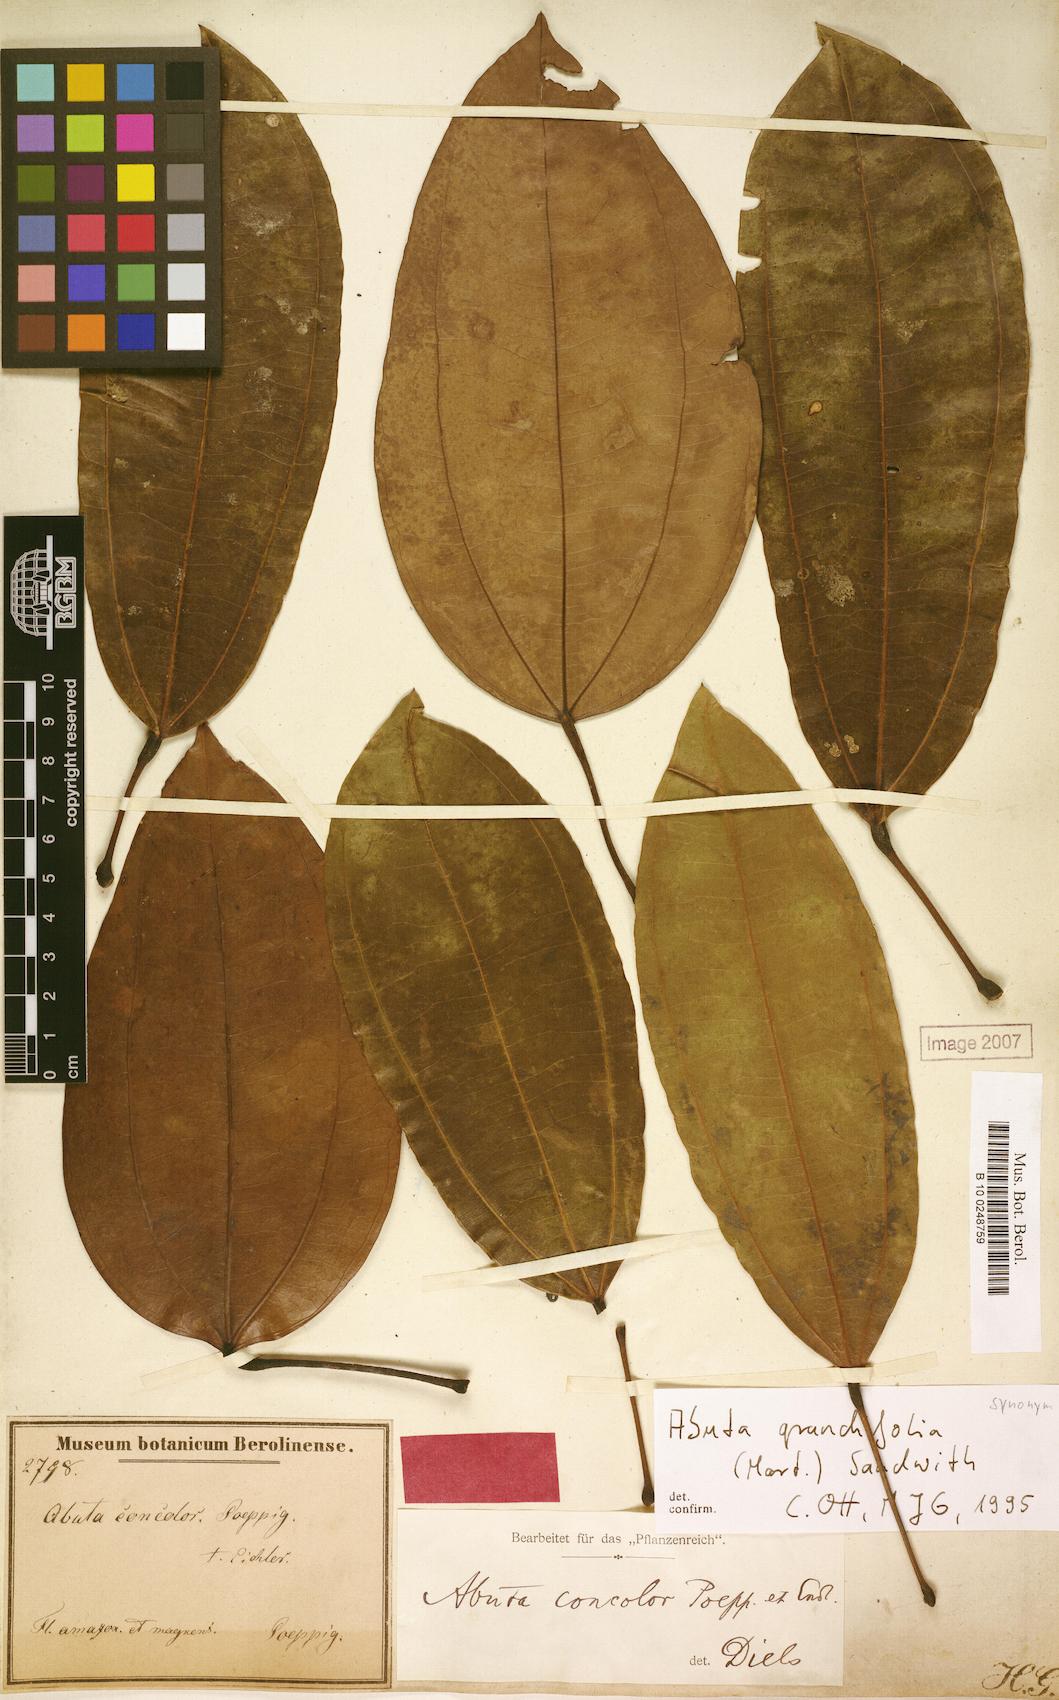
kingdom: Plantae
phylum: Tracheophyta
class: Magnoliopsida
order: Ranunculales
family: Menispermaceae
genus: Abuta
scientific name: Abuta grandifolia
